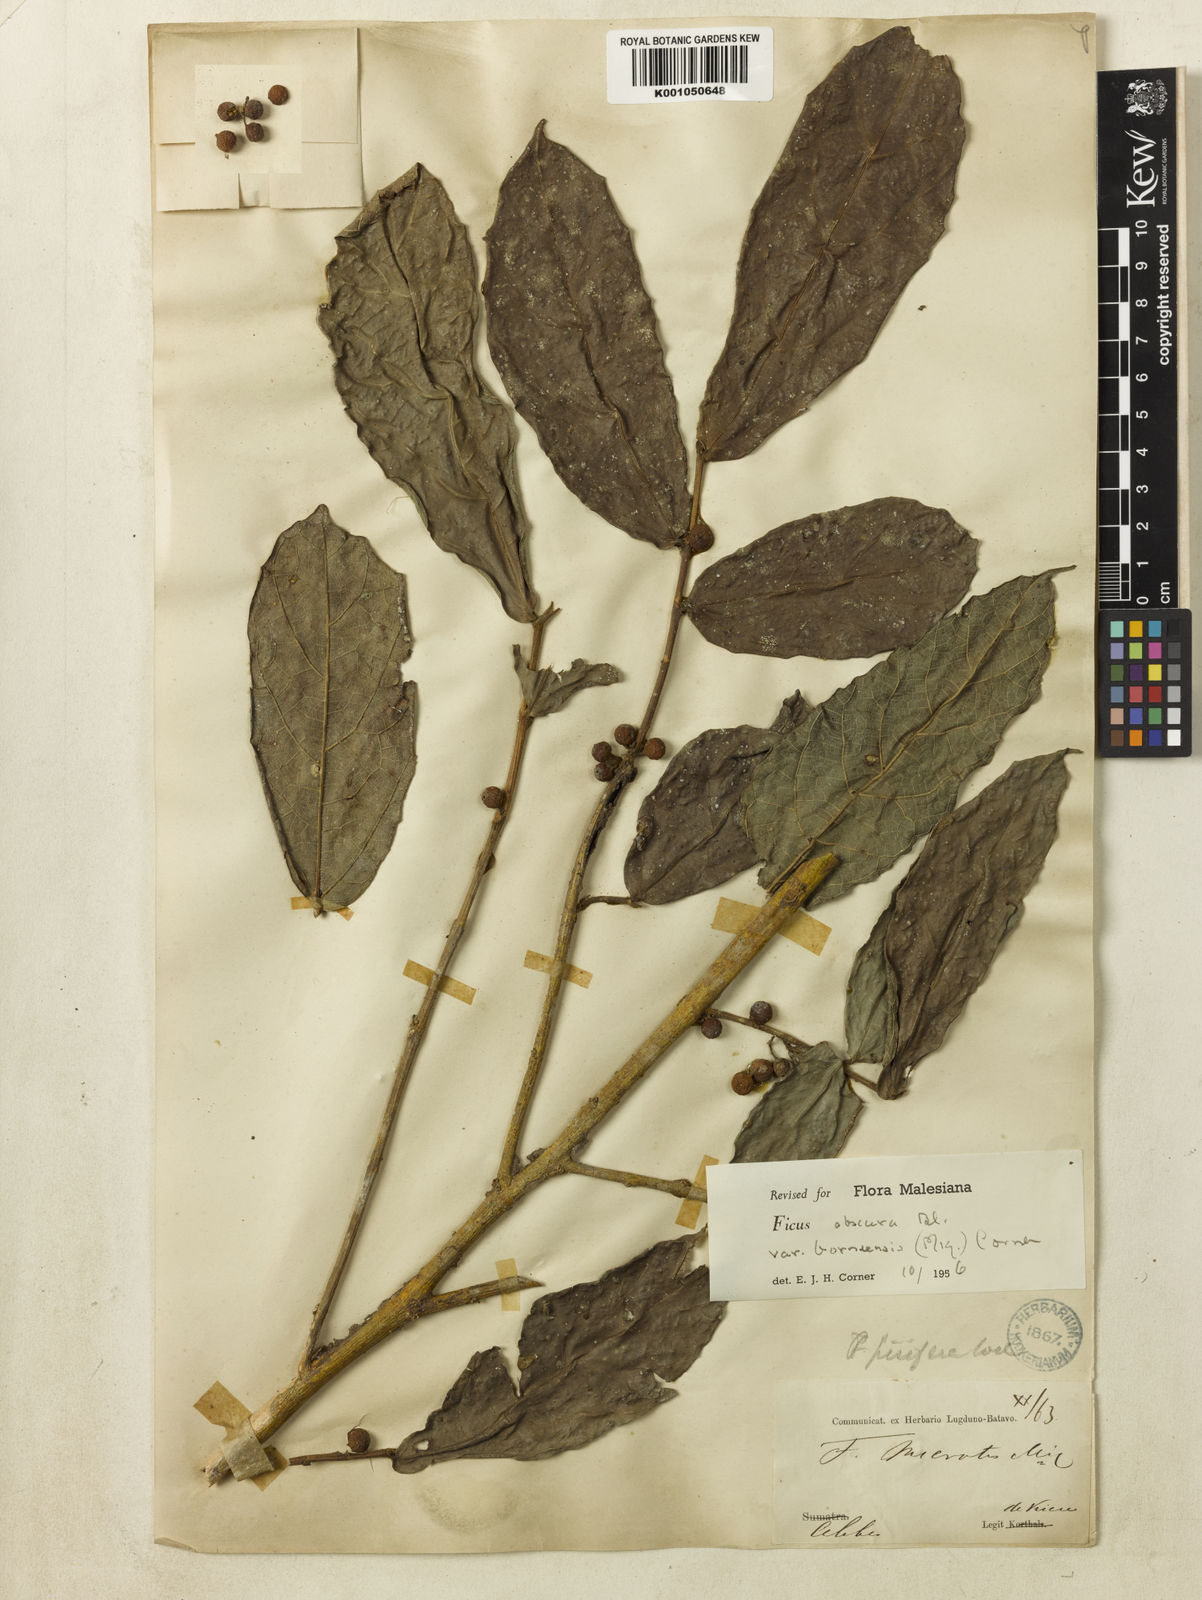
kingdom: Plantae
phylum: Tracheophyta
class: Magnoliopsida
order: Rosales
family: Moraceae
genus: Ficus
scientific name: Ficus scaberrima
